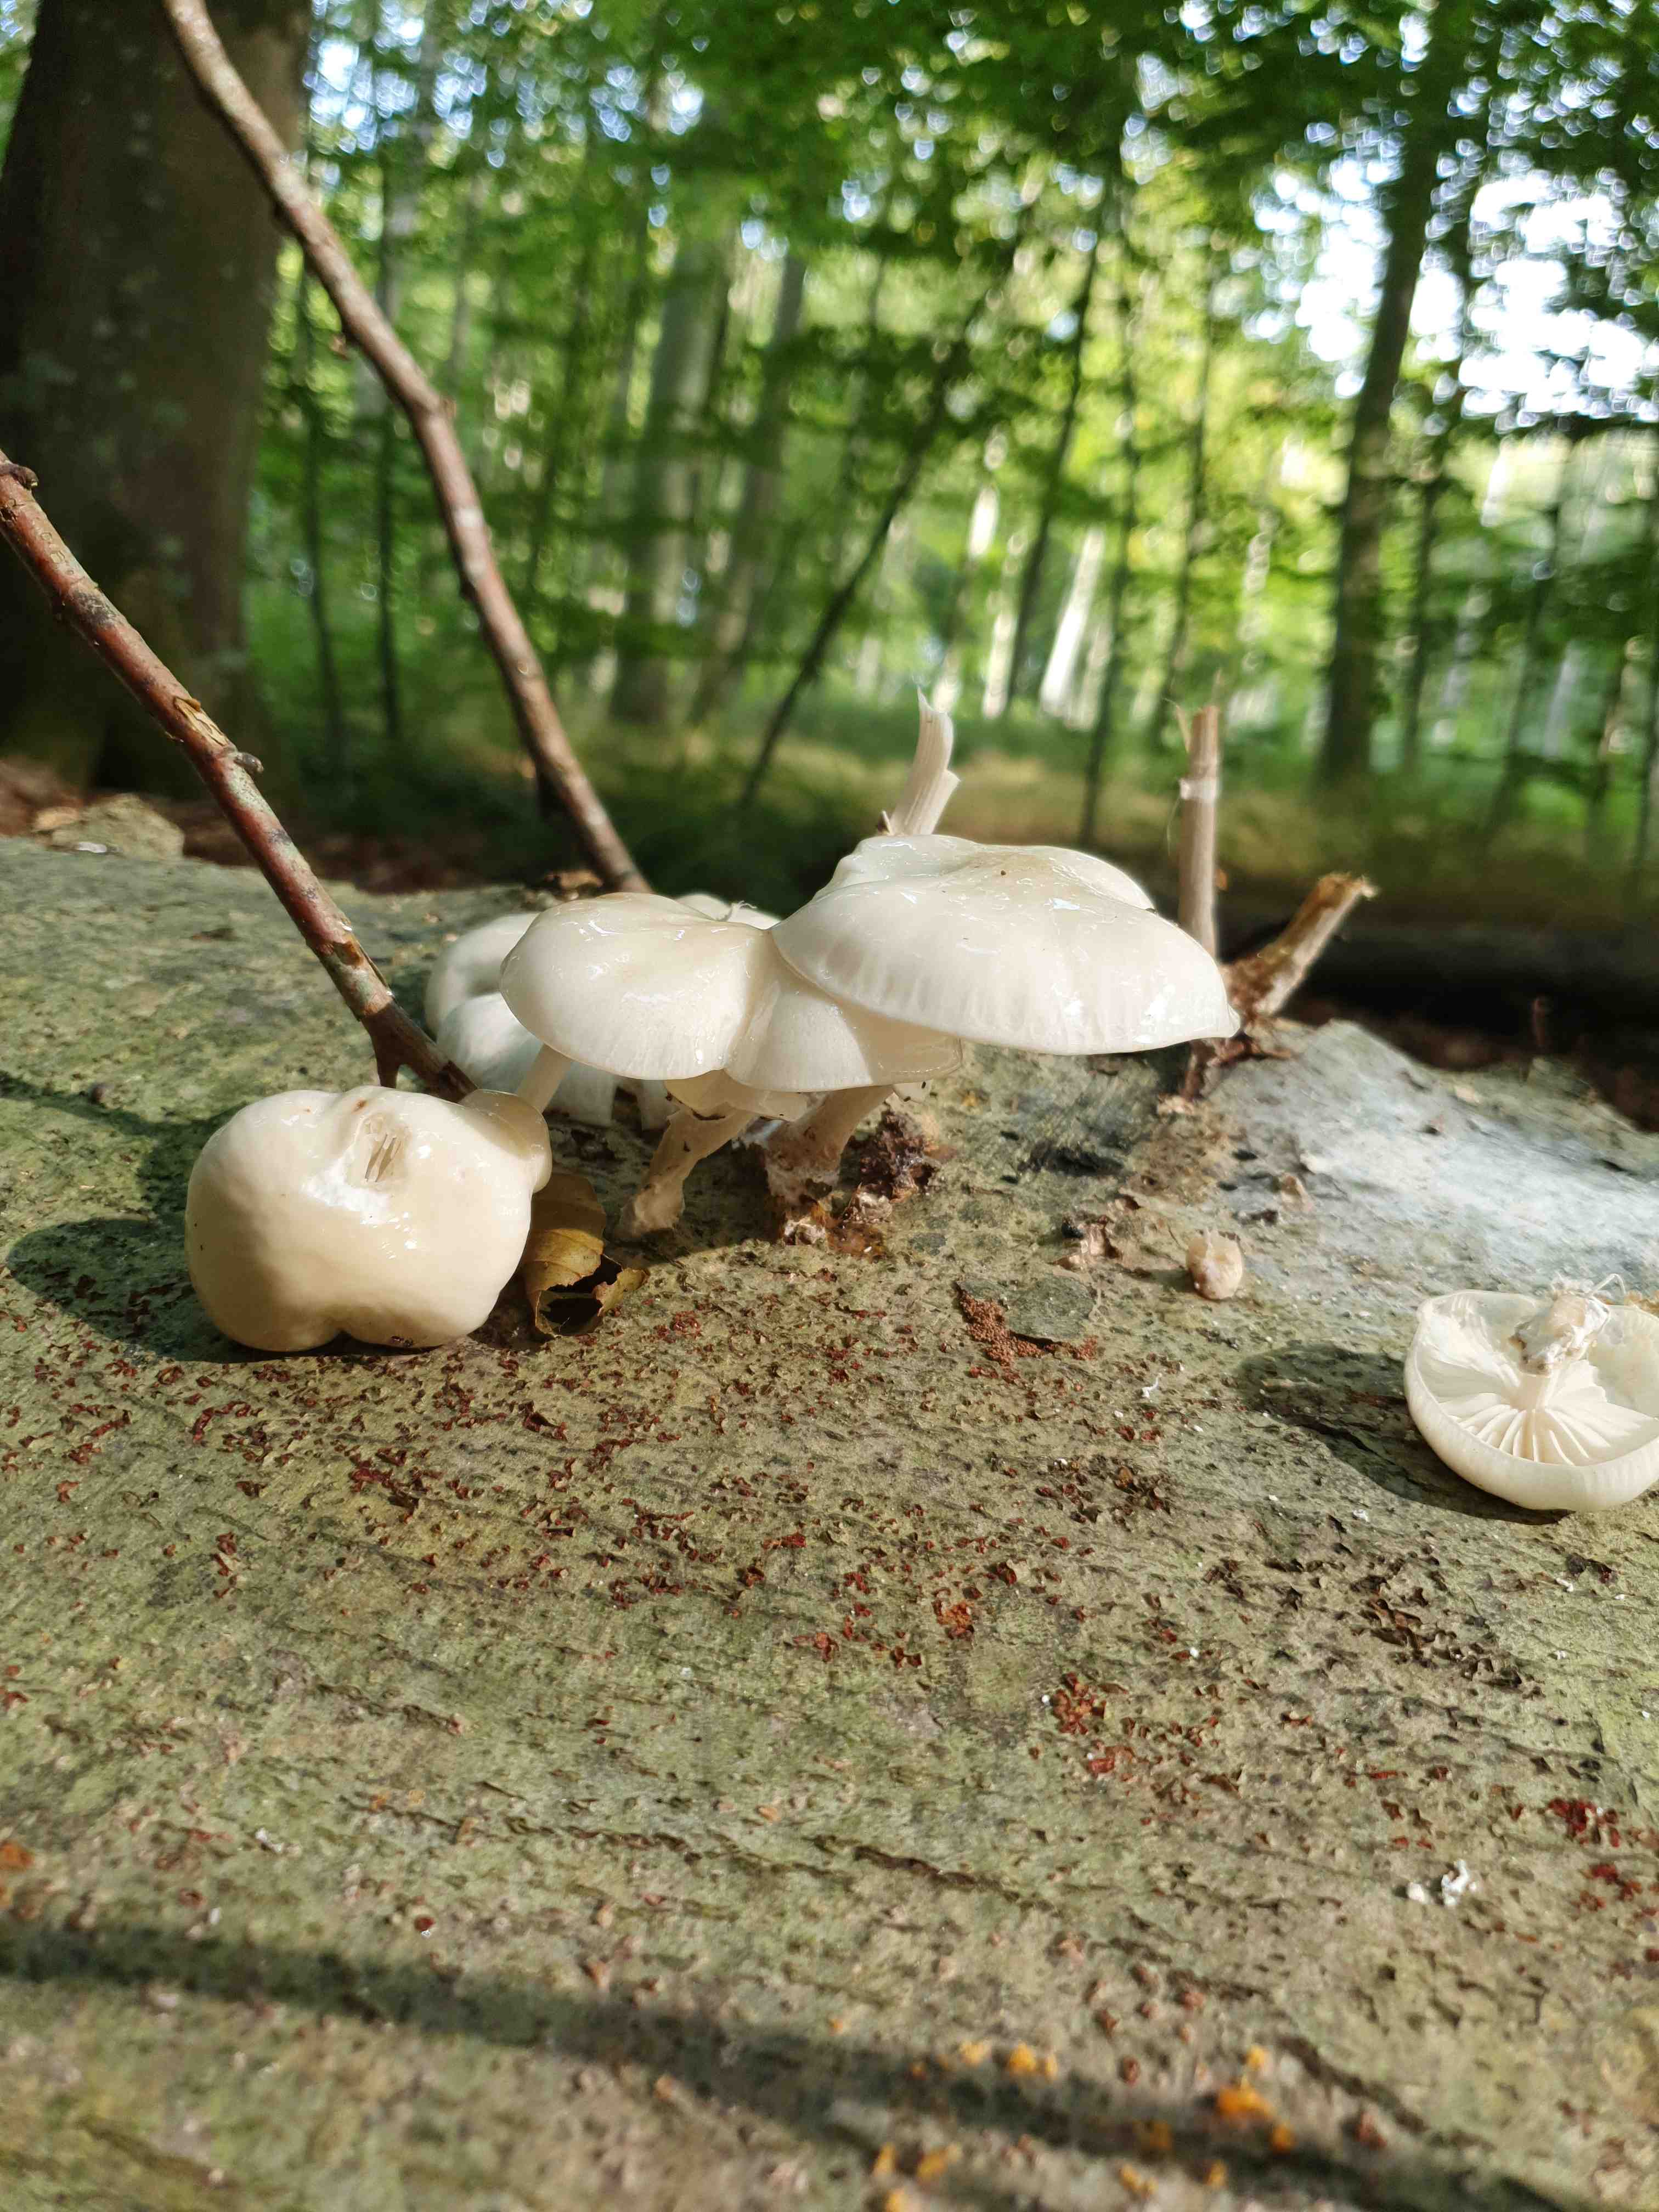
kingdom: Fungi
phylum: Basidiomycota
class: Agaricomycetes
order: Agaricales
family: Physalacriaceae
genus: Mucidula
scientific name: Mucidula mucida
